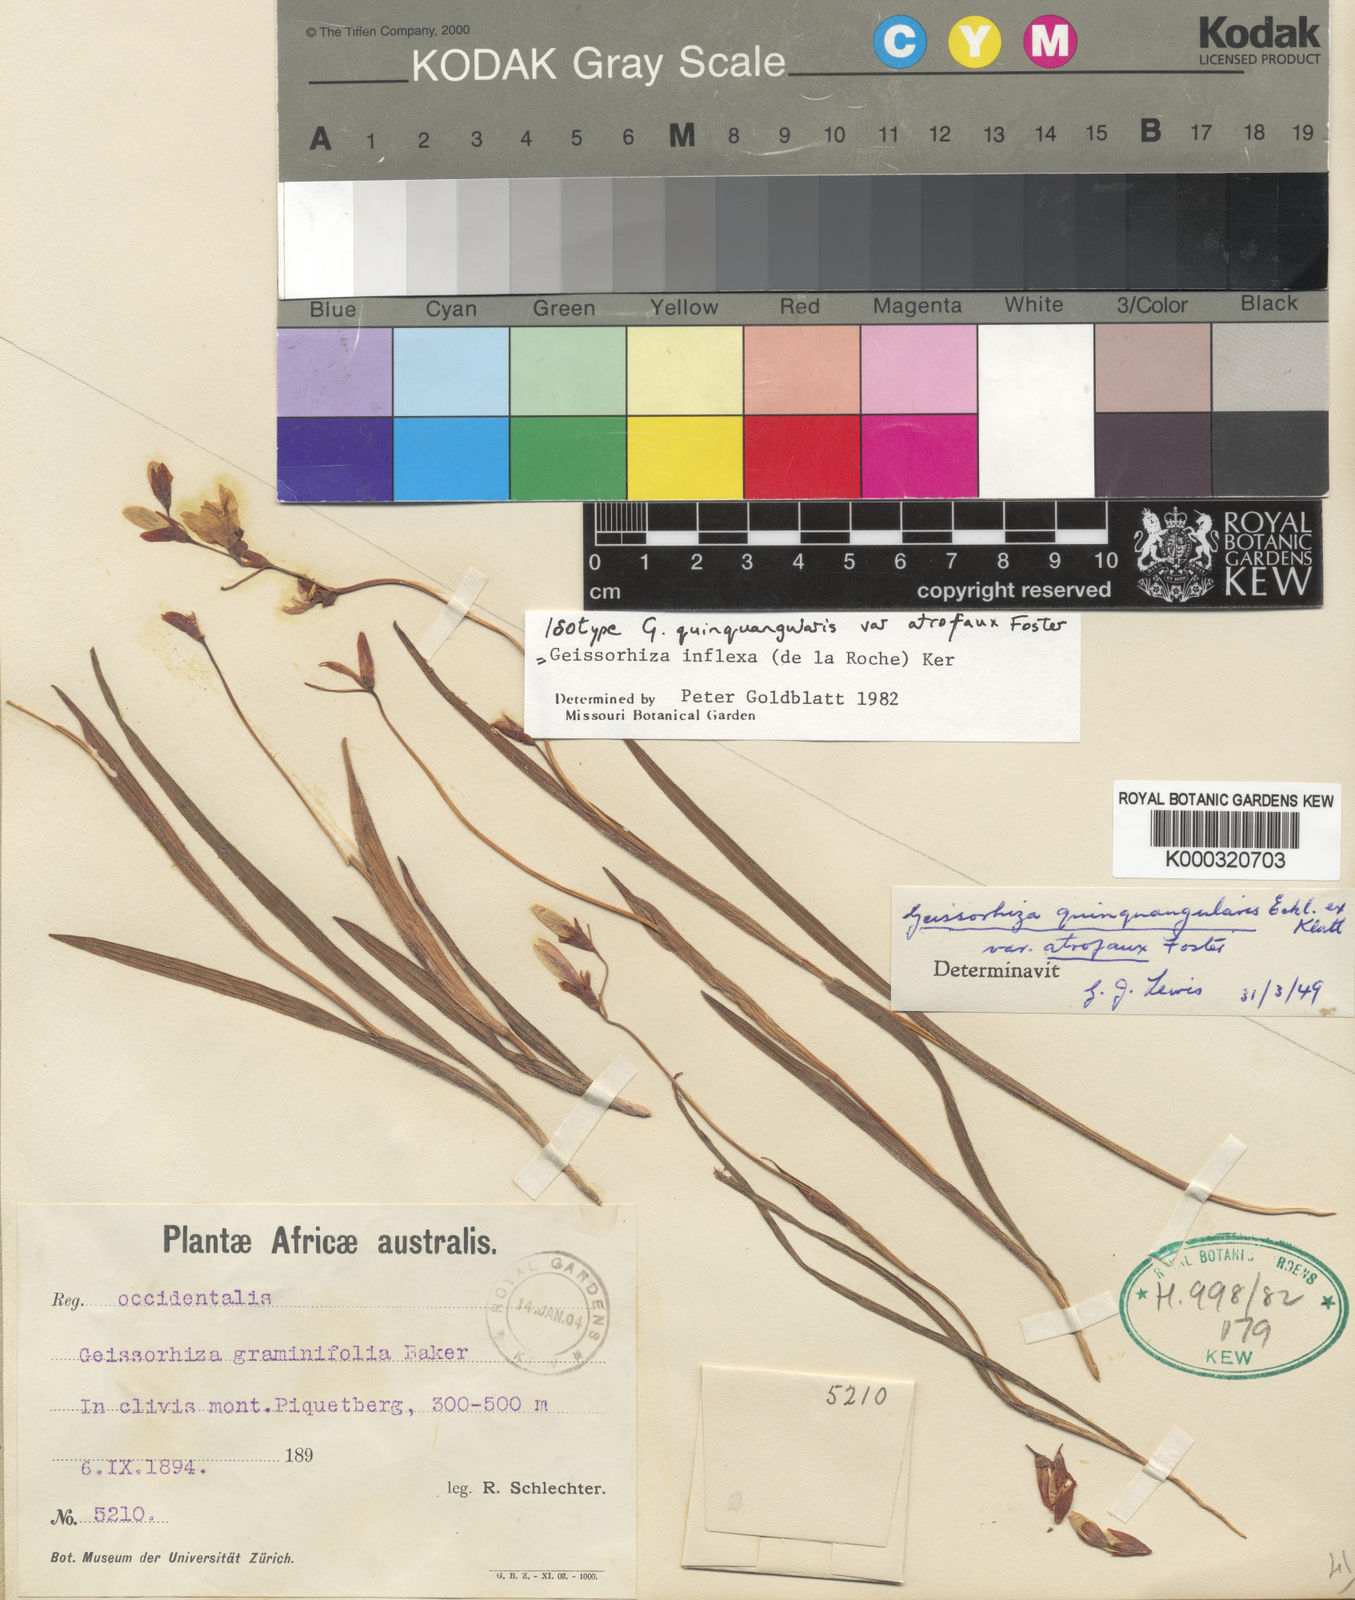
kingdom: Plantae
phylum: Tracheophyta
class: Liliopsida
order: Asparagales
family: Iridaceae
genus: Geissorhiza
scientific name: Geissorhiza inflexa
